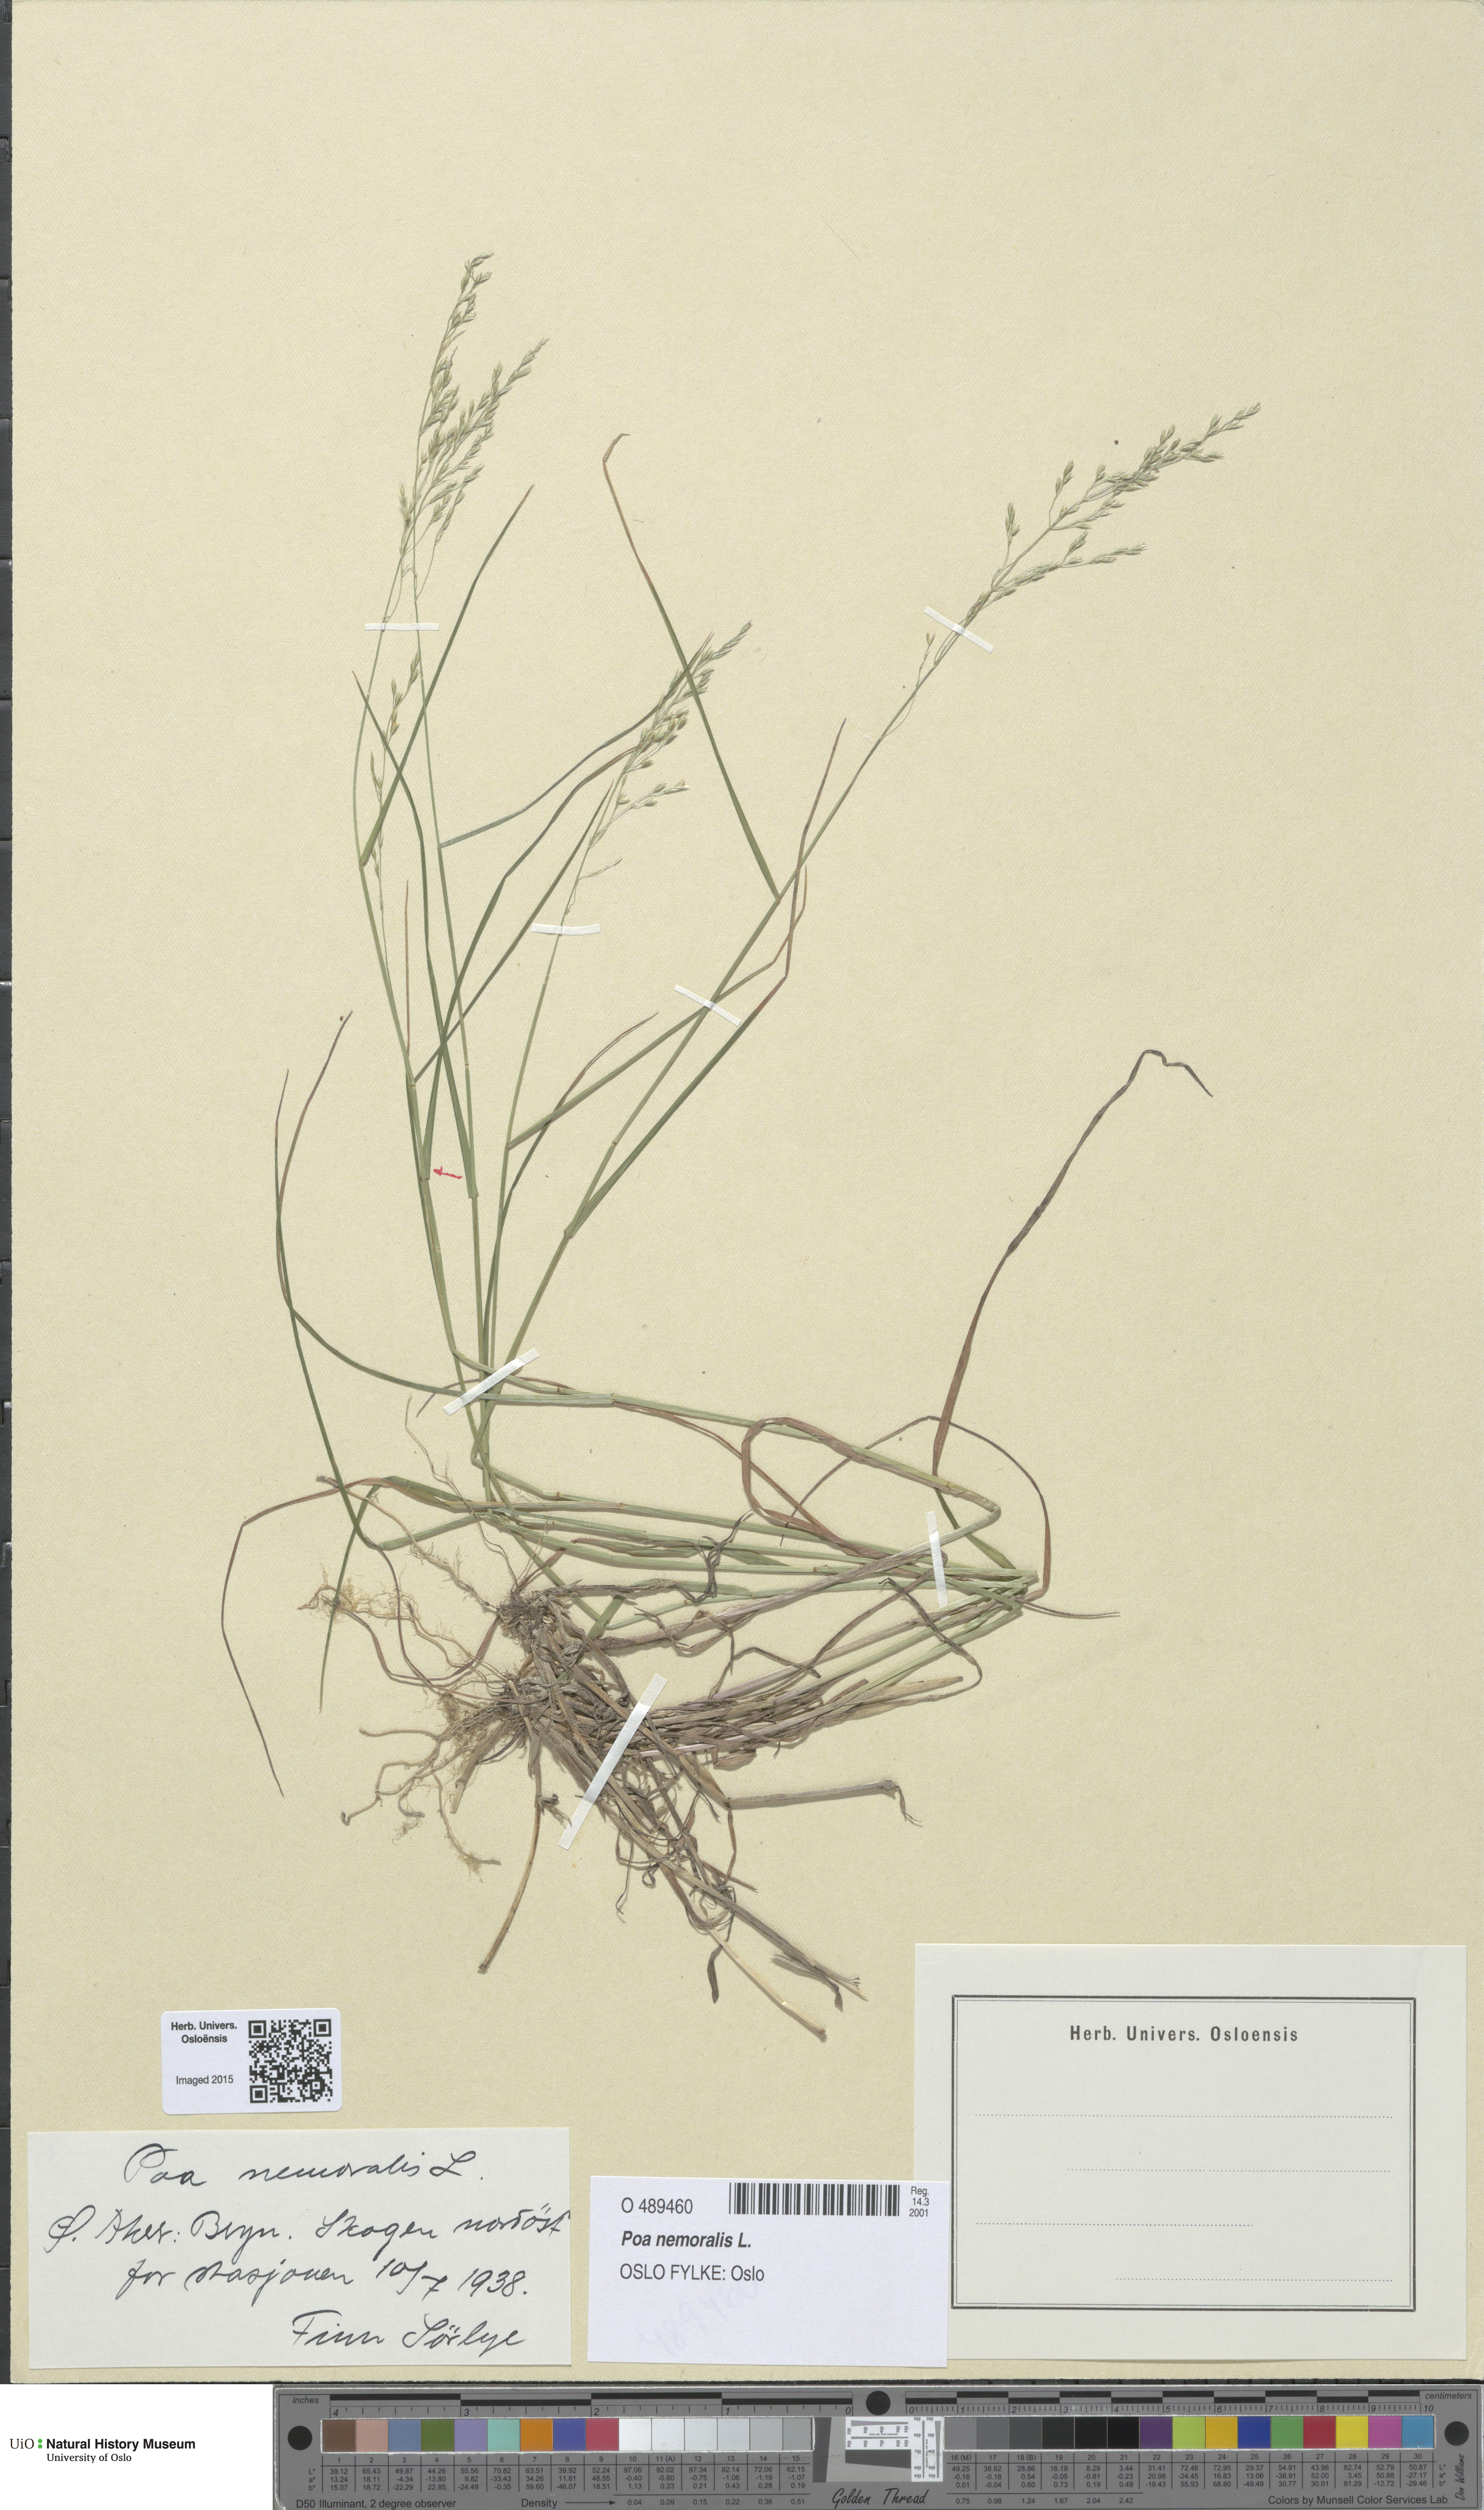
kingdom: Plantae
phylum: Tracheophyta
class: Liliopsida
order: Poales
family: Poaceae
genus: Poa
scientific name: Poa nemoralis
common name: Wood bluegrass
